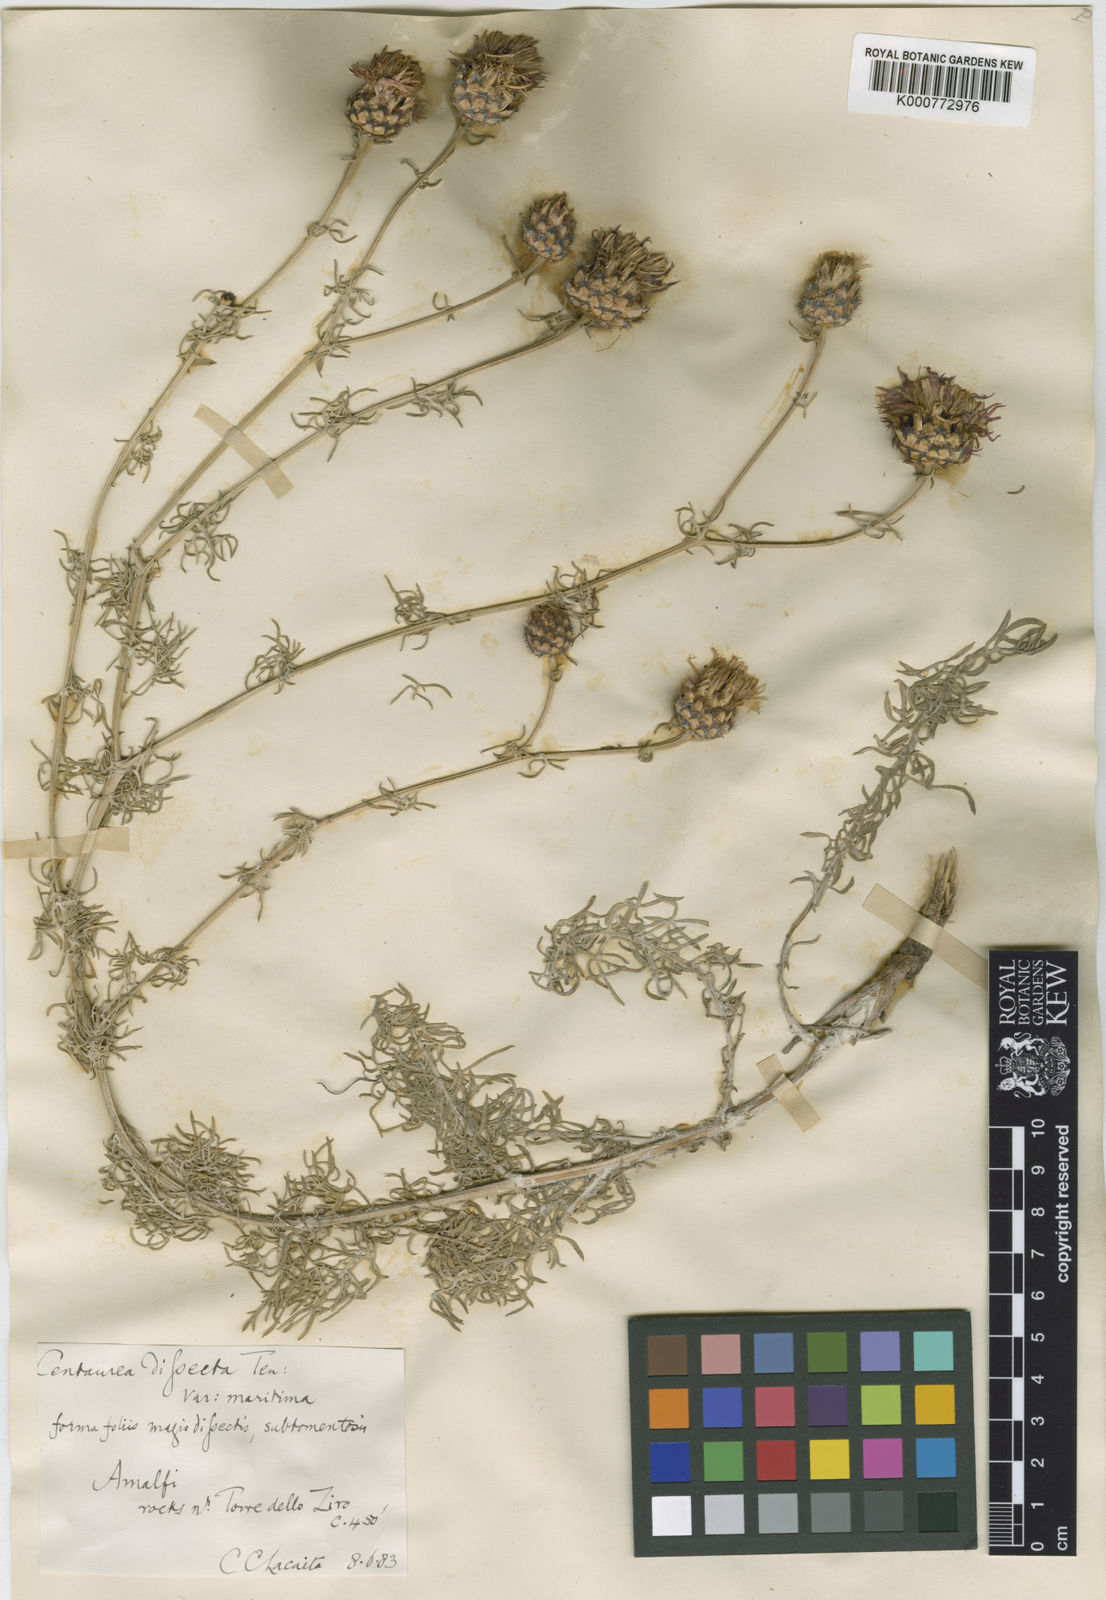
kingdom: Plantae
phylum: Tracheophyta
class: Magnoliopsida
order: Asterales
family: Asteraceae
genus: Centaurea
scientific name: Centaurea parlatoris
